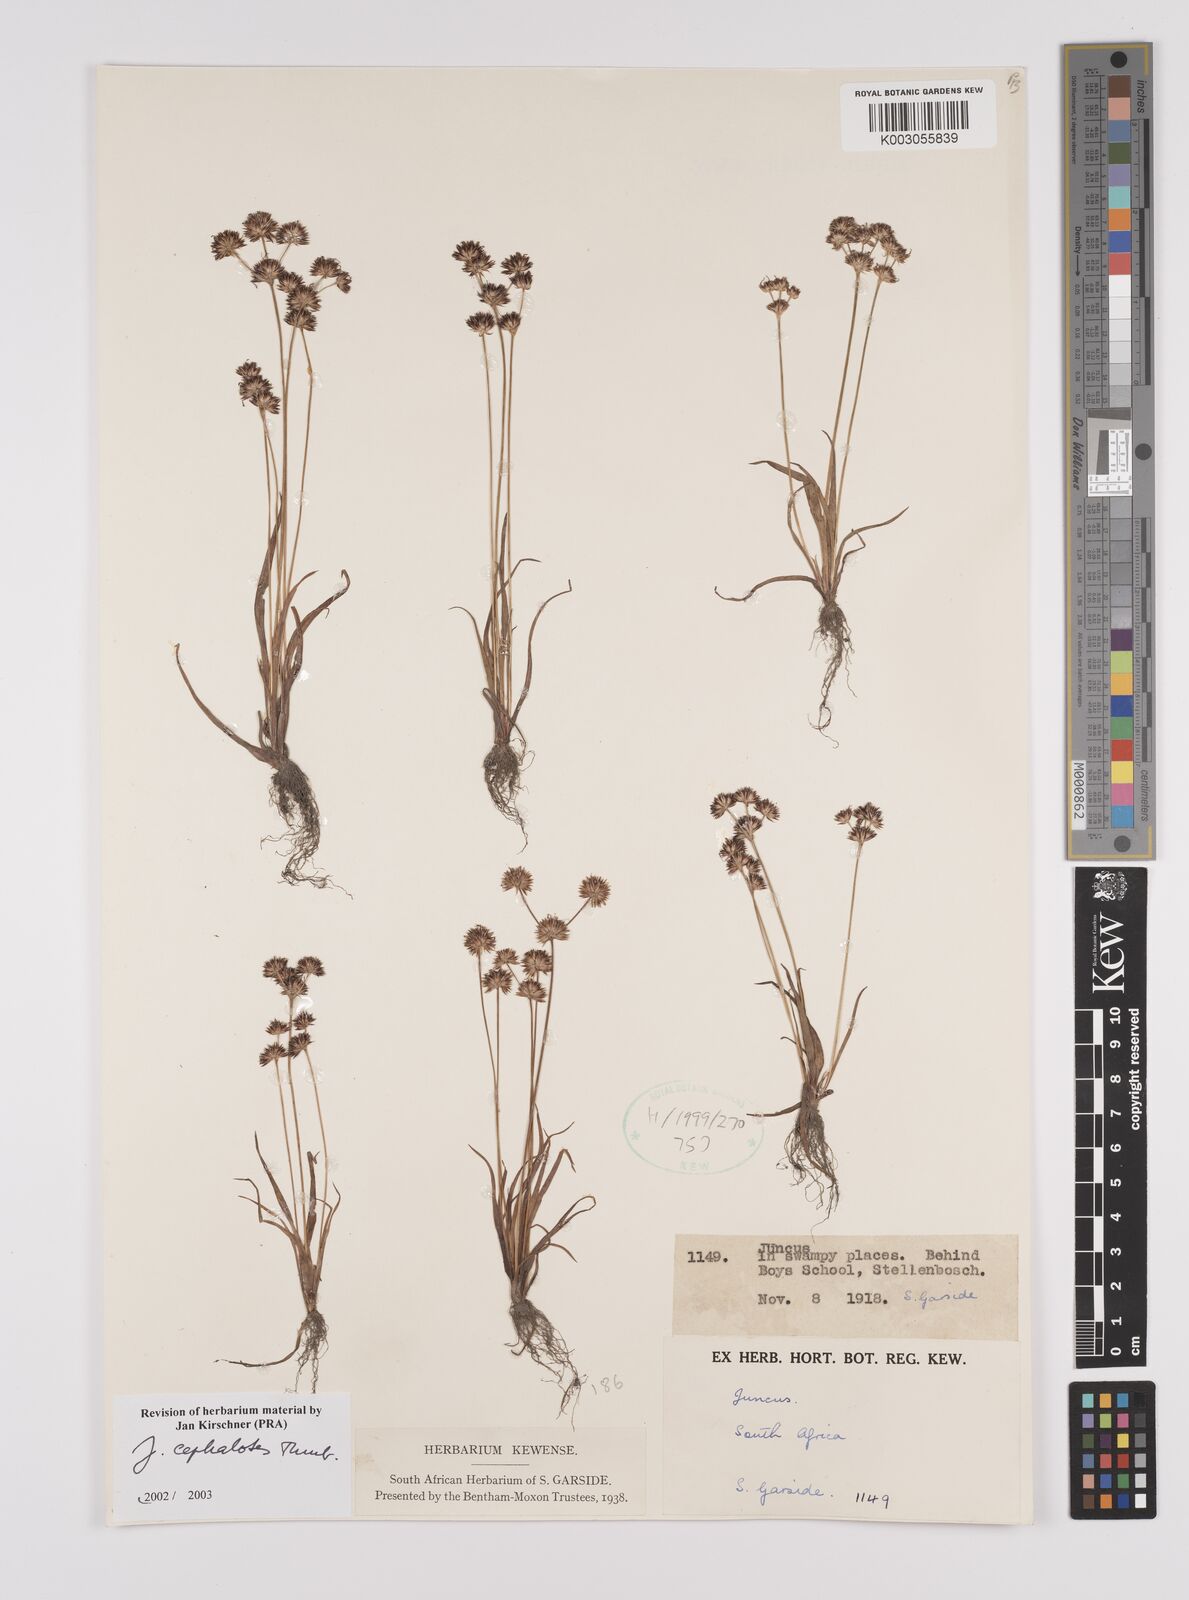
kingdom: Plantae
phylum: Tracheophyta
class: Liliopsida
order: Poales
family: Juncaceae
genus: Juncus
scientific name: Juncus cephalotes
